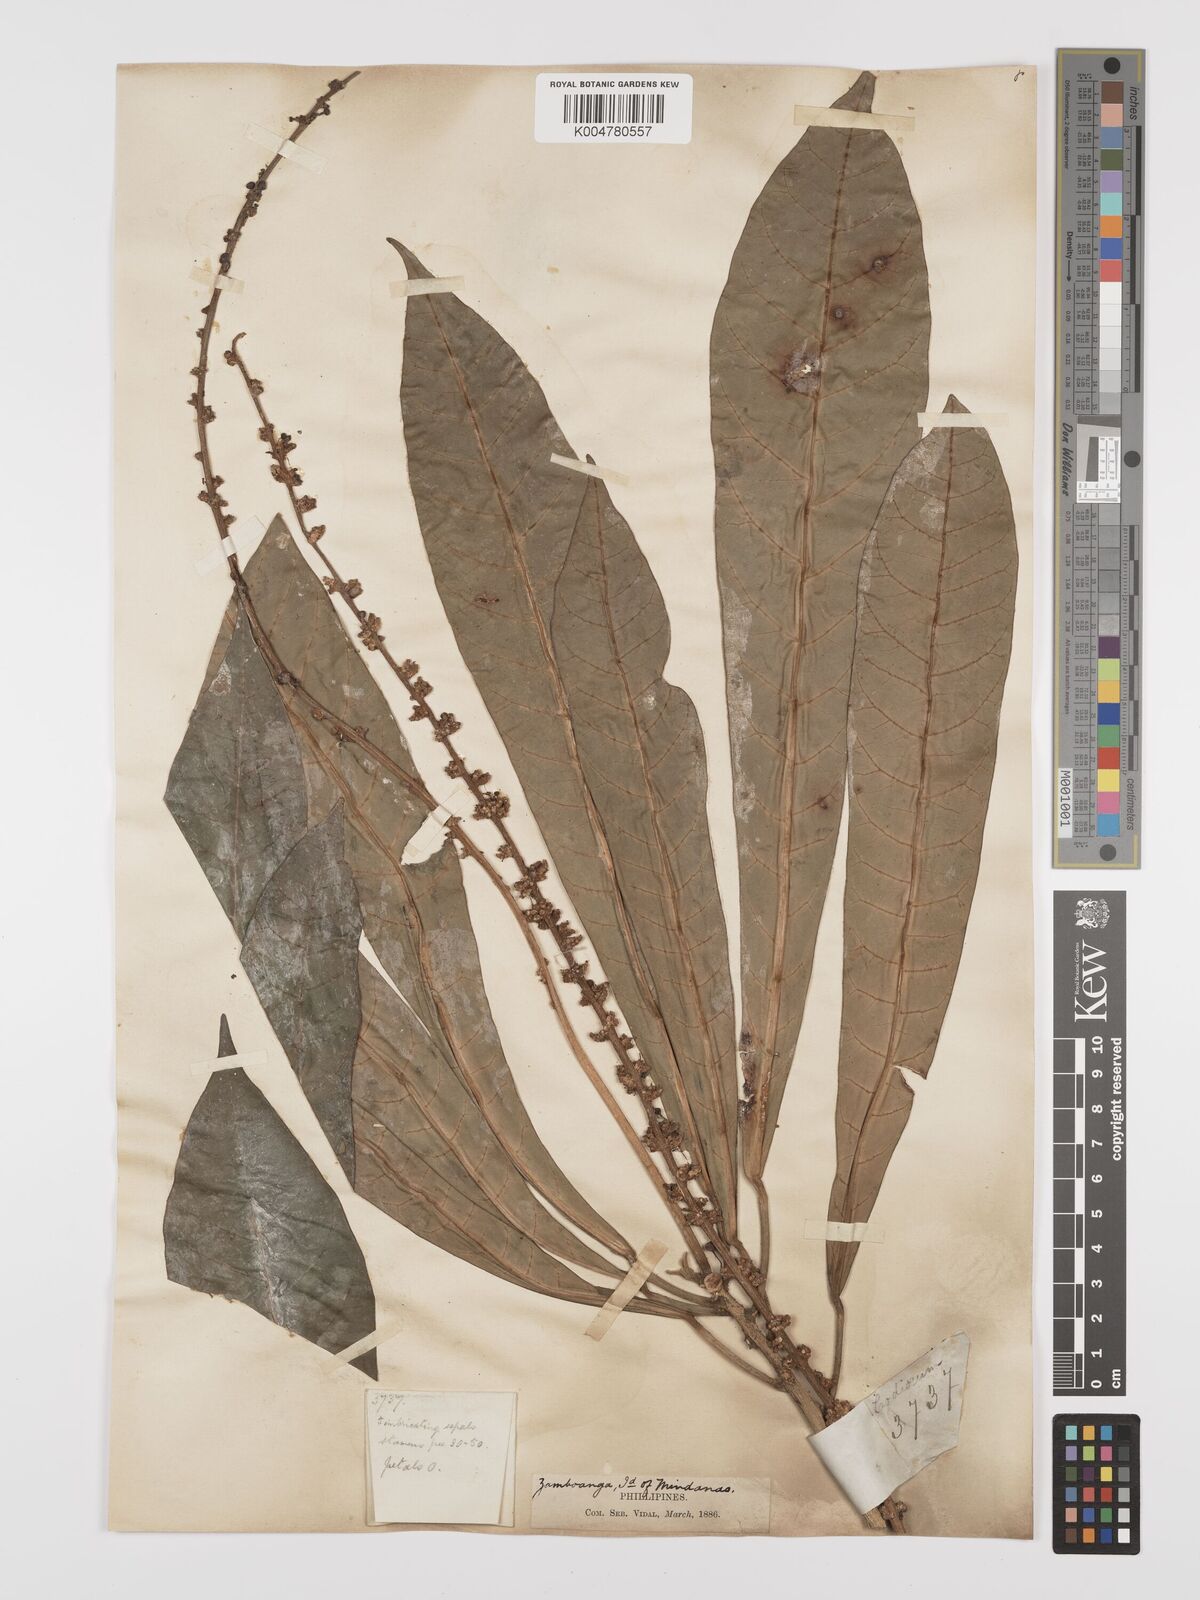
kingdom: Plantae
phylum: Tracheophyta
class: Magnoliopsida
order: Malpighiales
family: Euphorbiaceae
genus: Codiaeum
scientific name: Codiaeum palawanense
